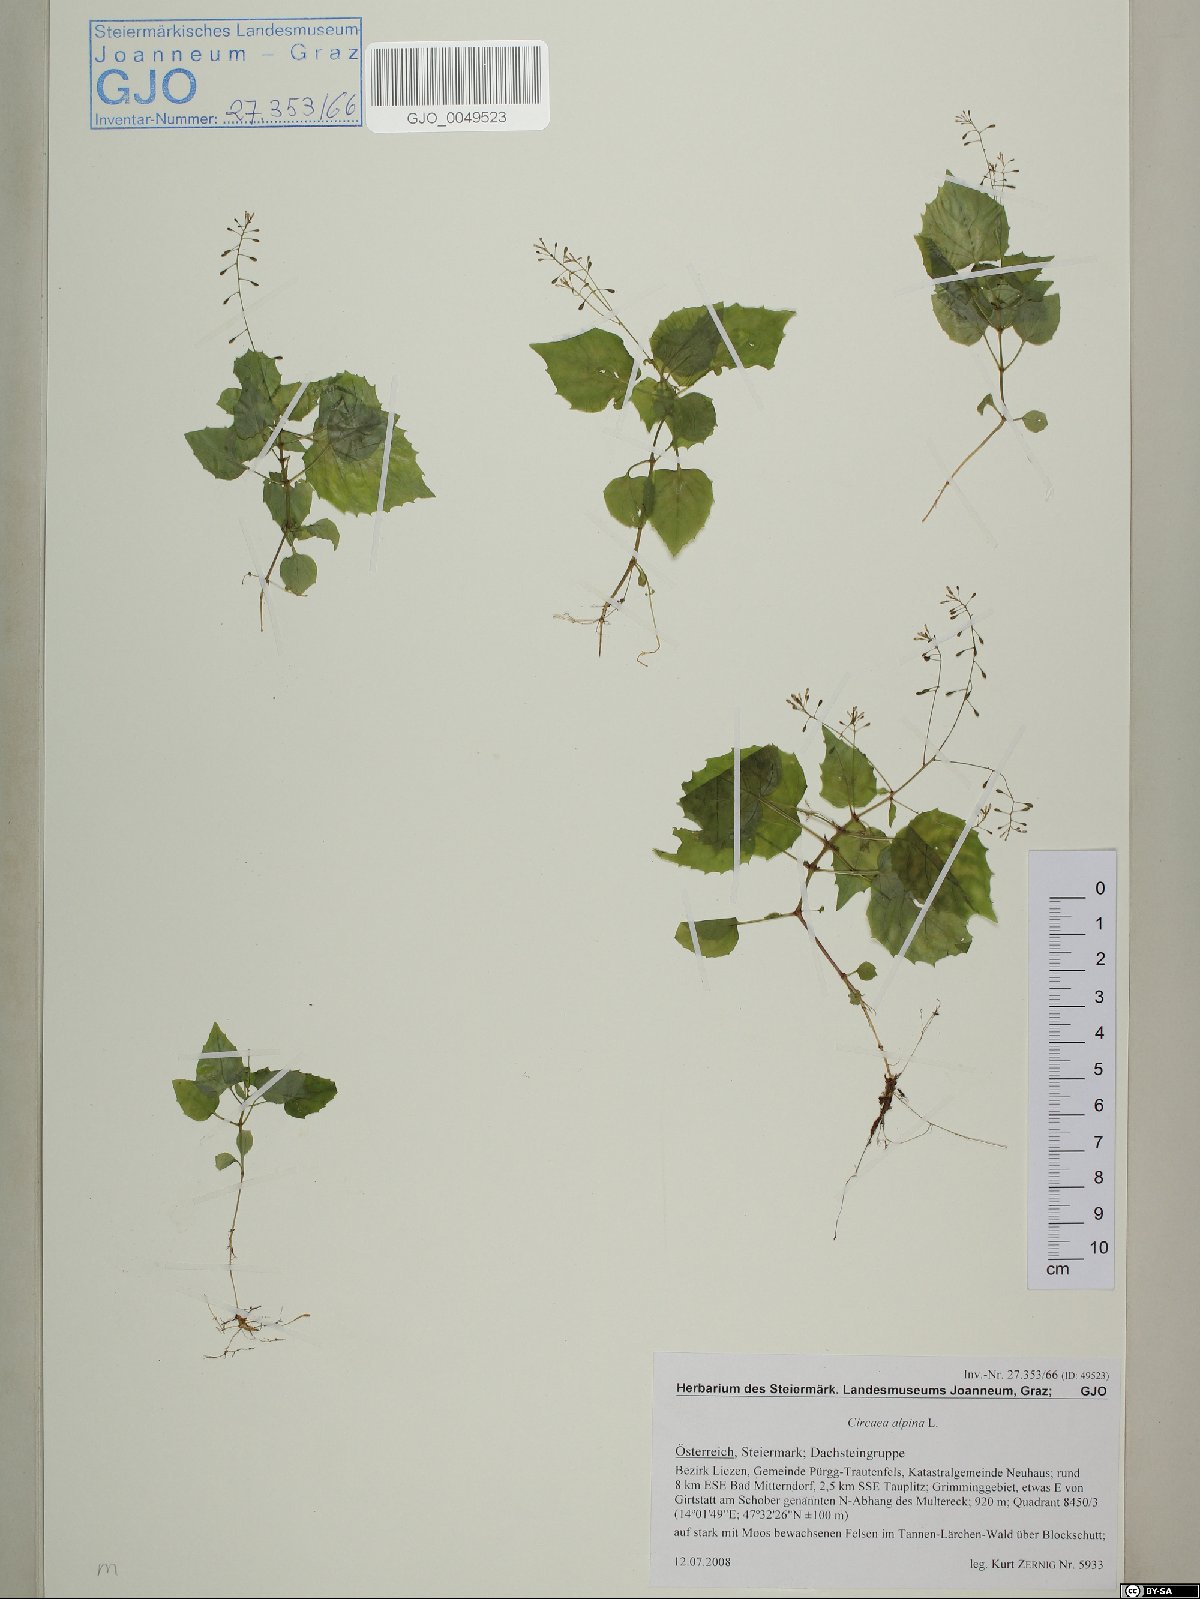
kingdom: Plantae
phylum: Tracheophyta
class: Magnoliopsida
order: Myrtales
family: Onagraceae
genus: Circaea
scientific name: Circaea alpina
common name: Alpine enchanter's-nightshade
